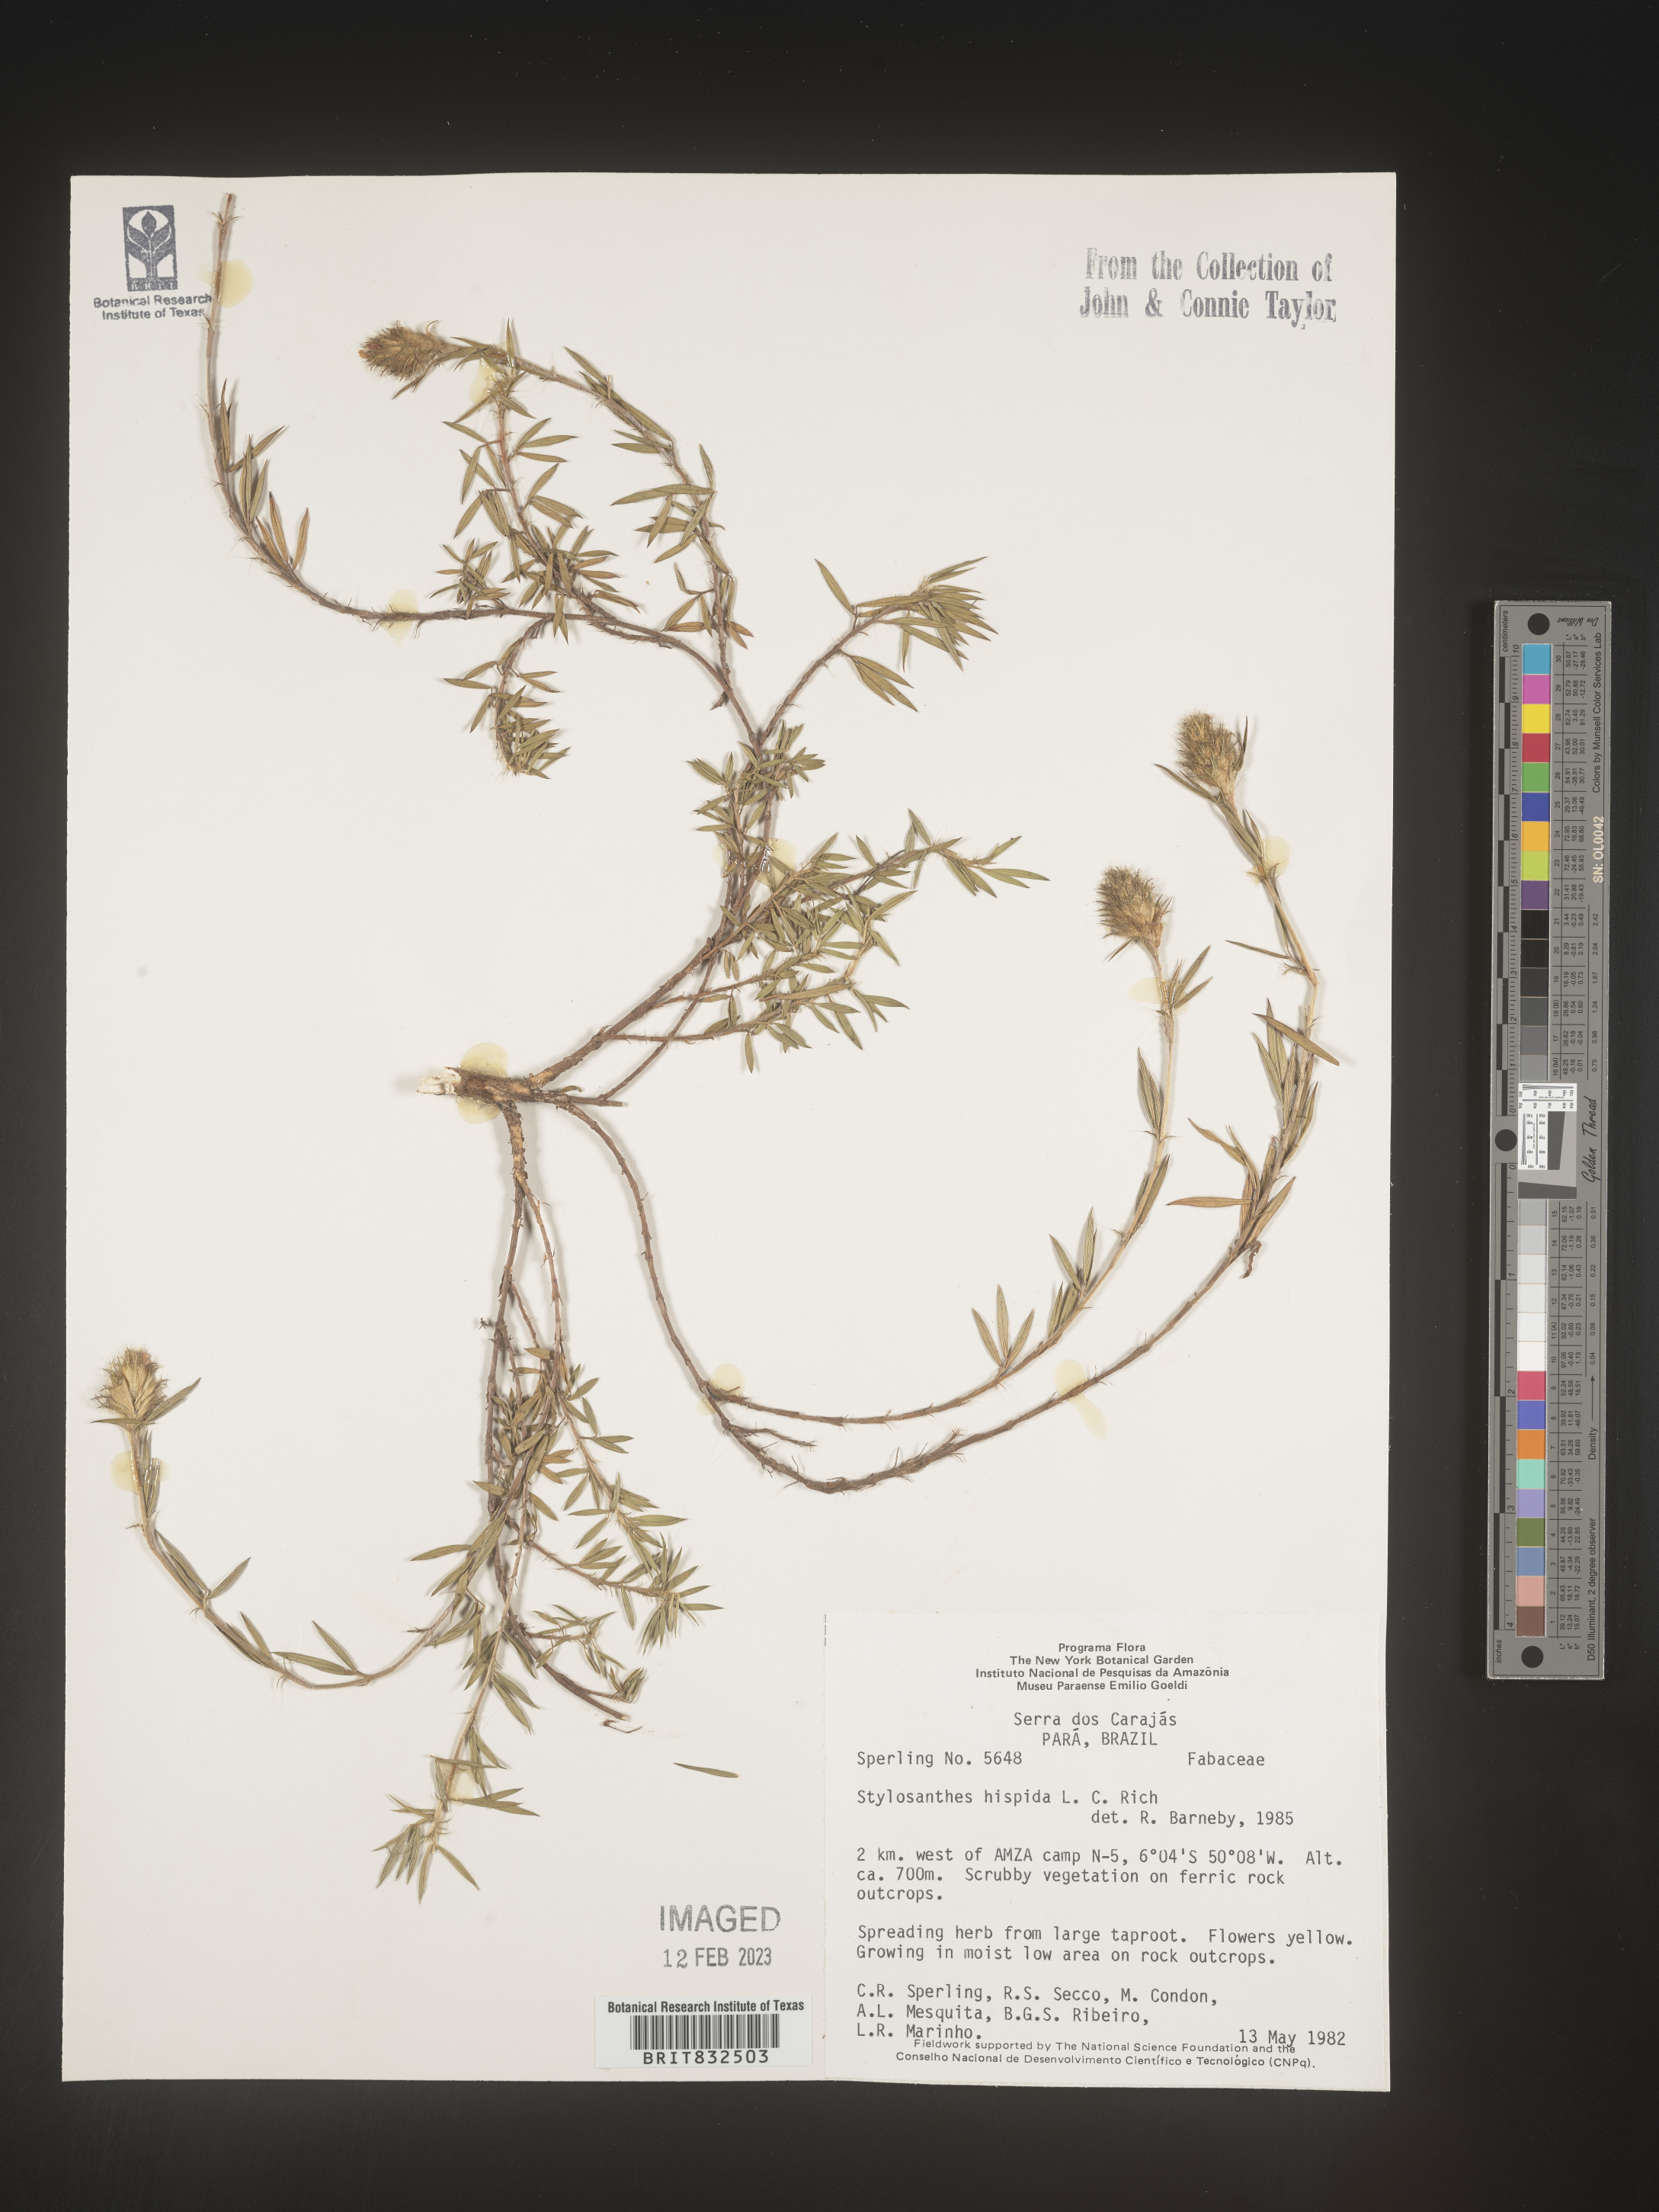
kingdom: Plantae
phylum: Tracheophyta
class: Magnoliopsida
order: Fabales
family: Fabaceae
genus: Stylosanthes
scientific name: Stylosanthes
